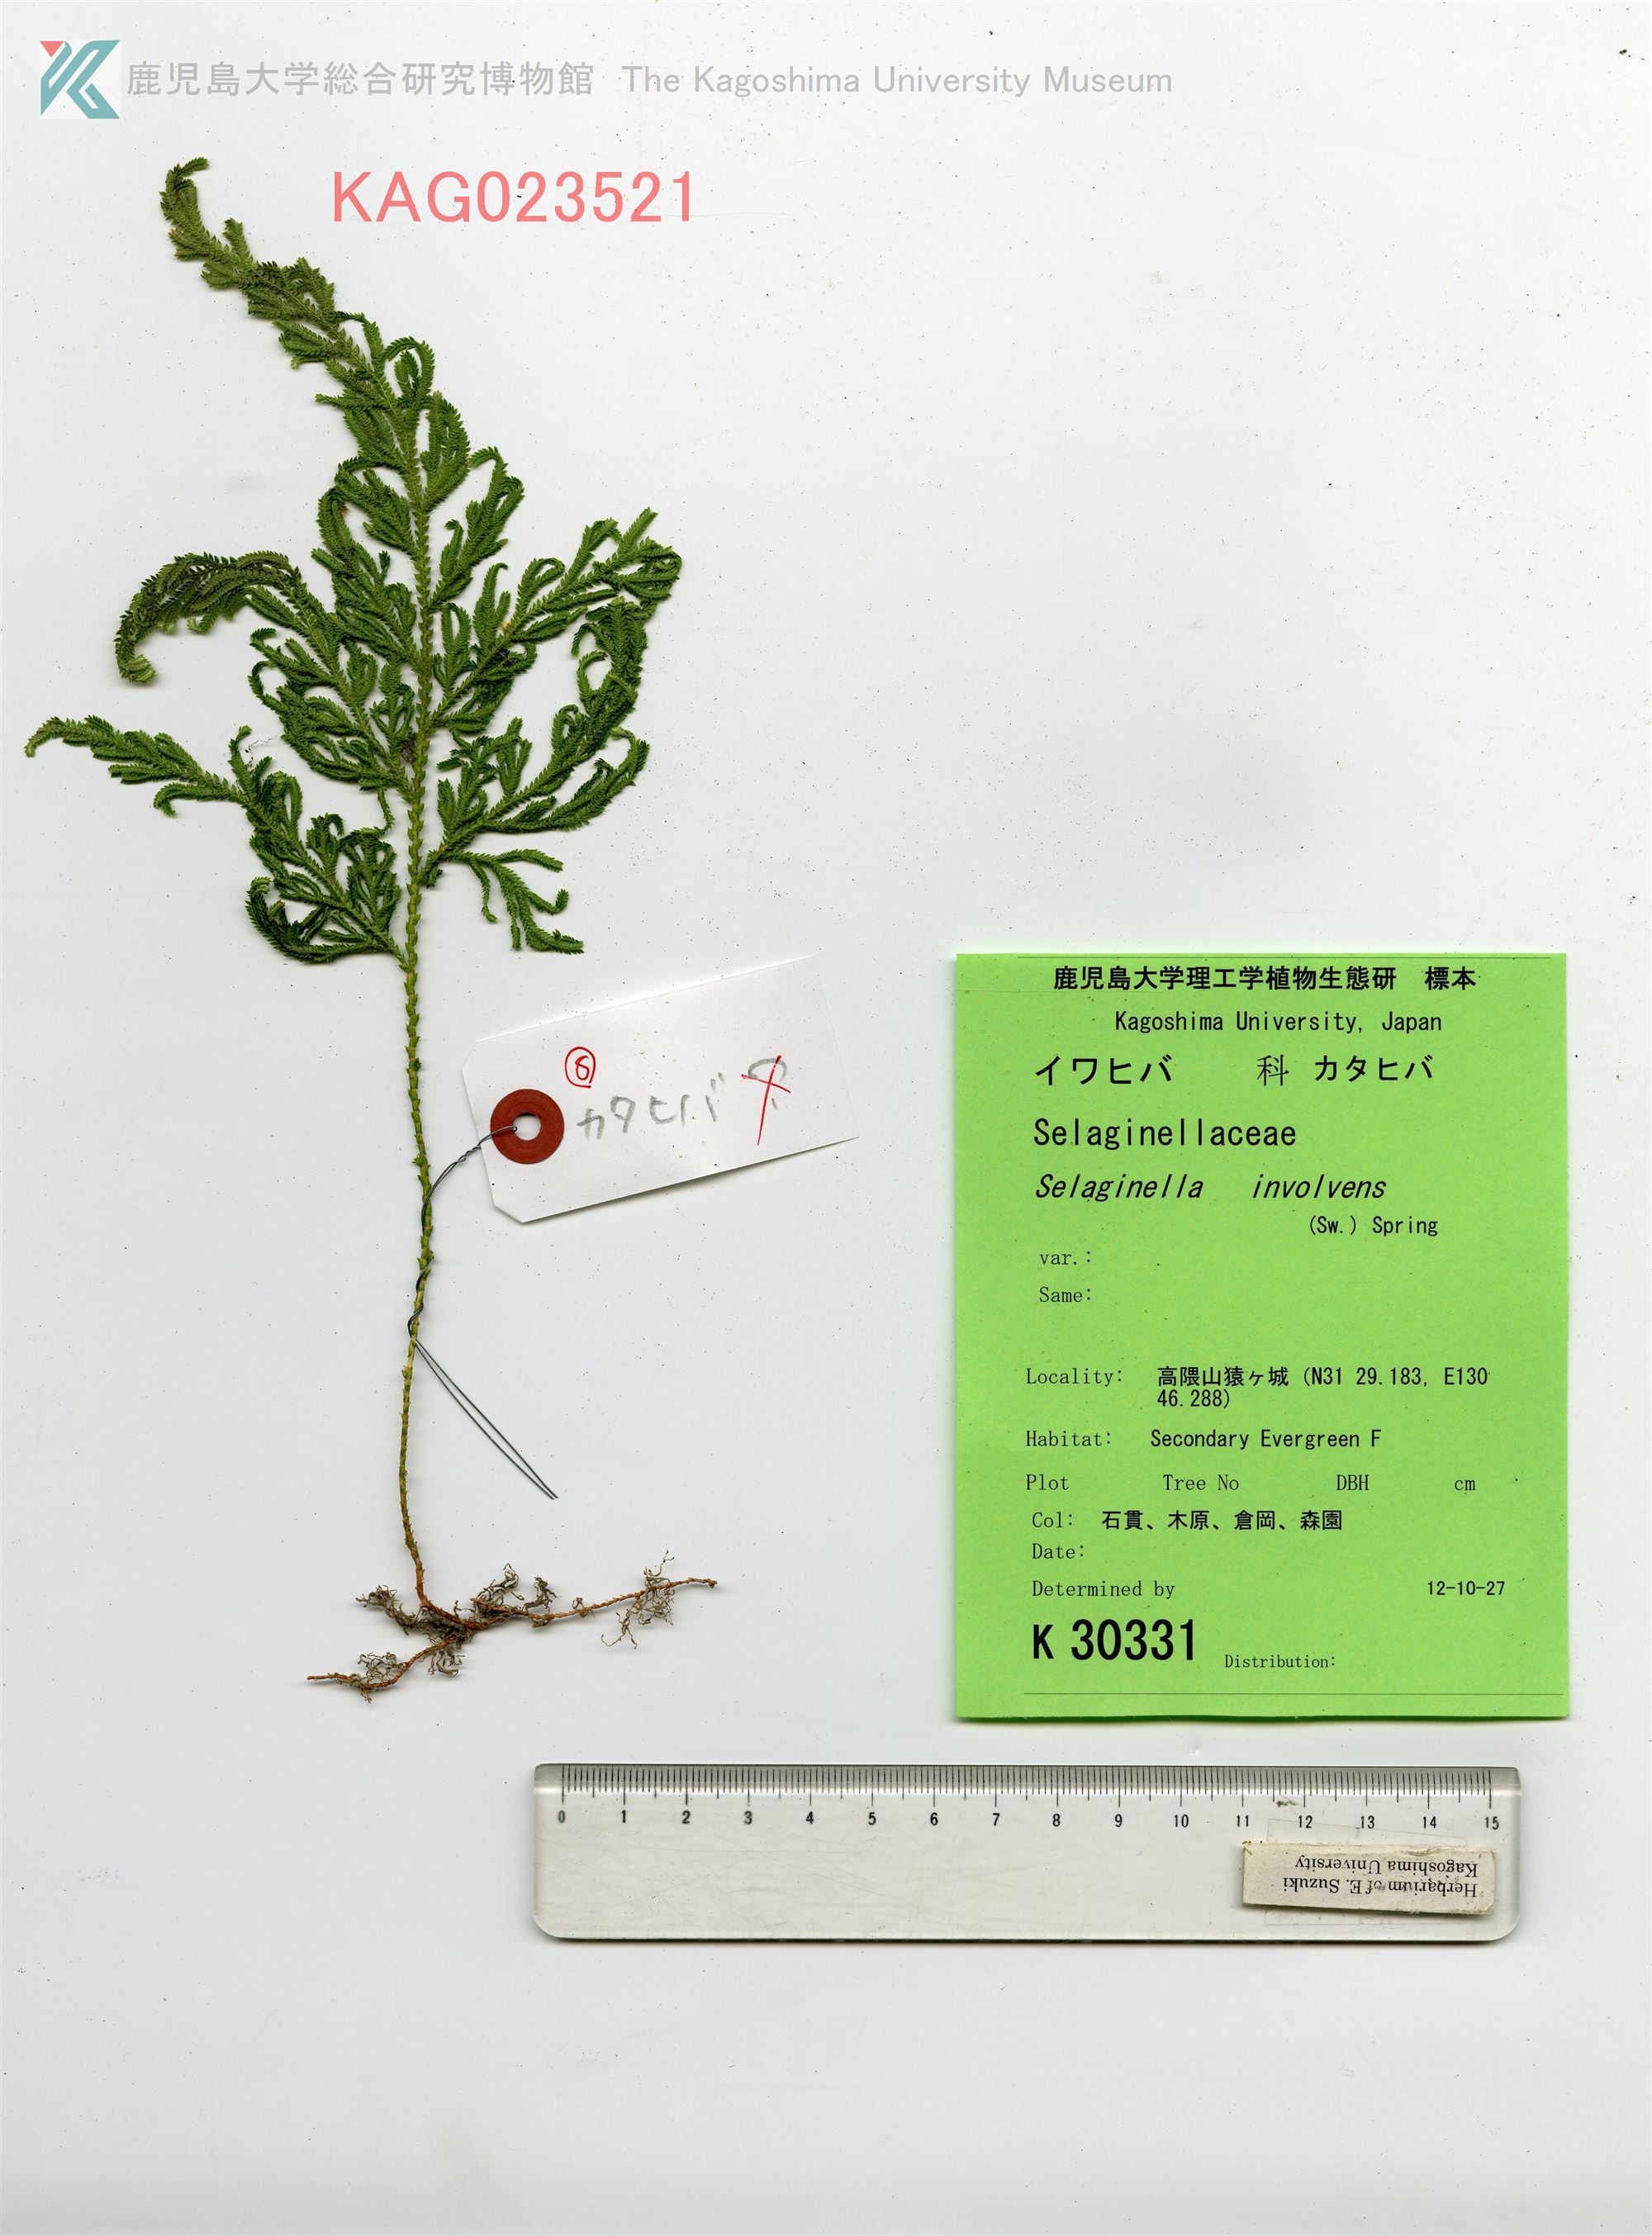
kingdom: Plantae
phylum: Tracheophyta
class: Lycopodiopsida
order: Selaginellales
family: Selaginellaceae
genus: Selaginella
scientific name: Selaginella involvens
